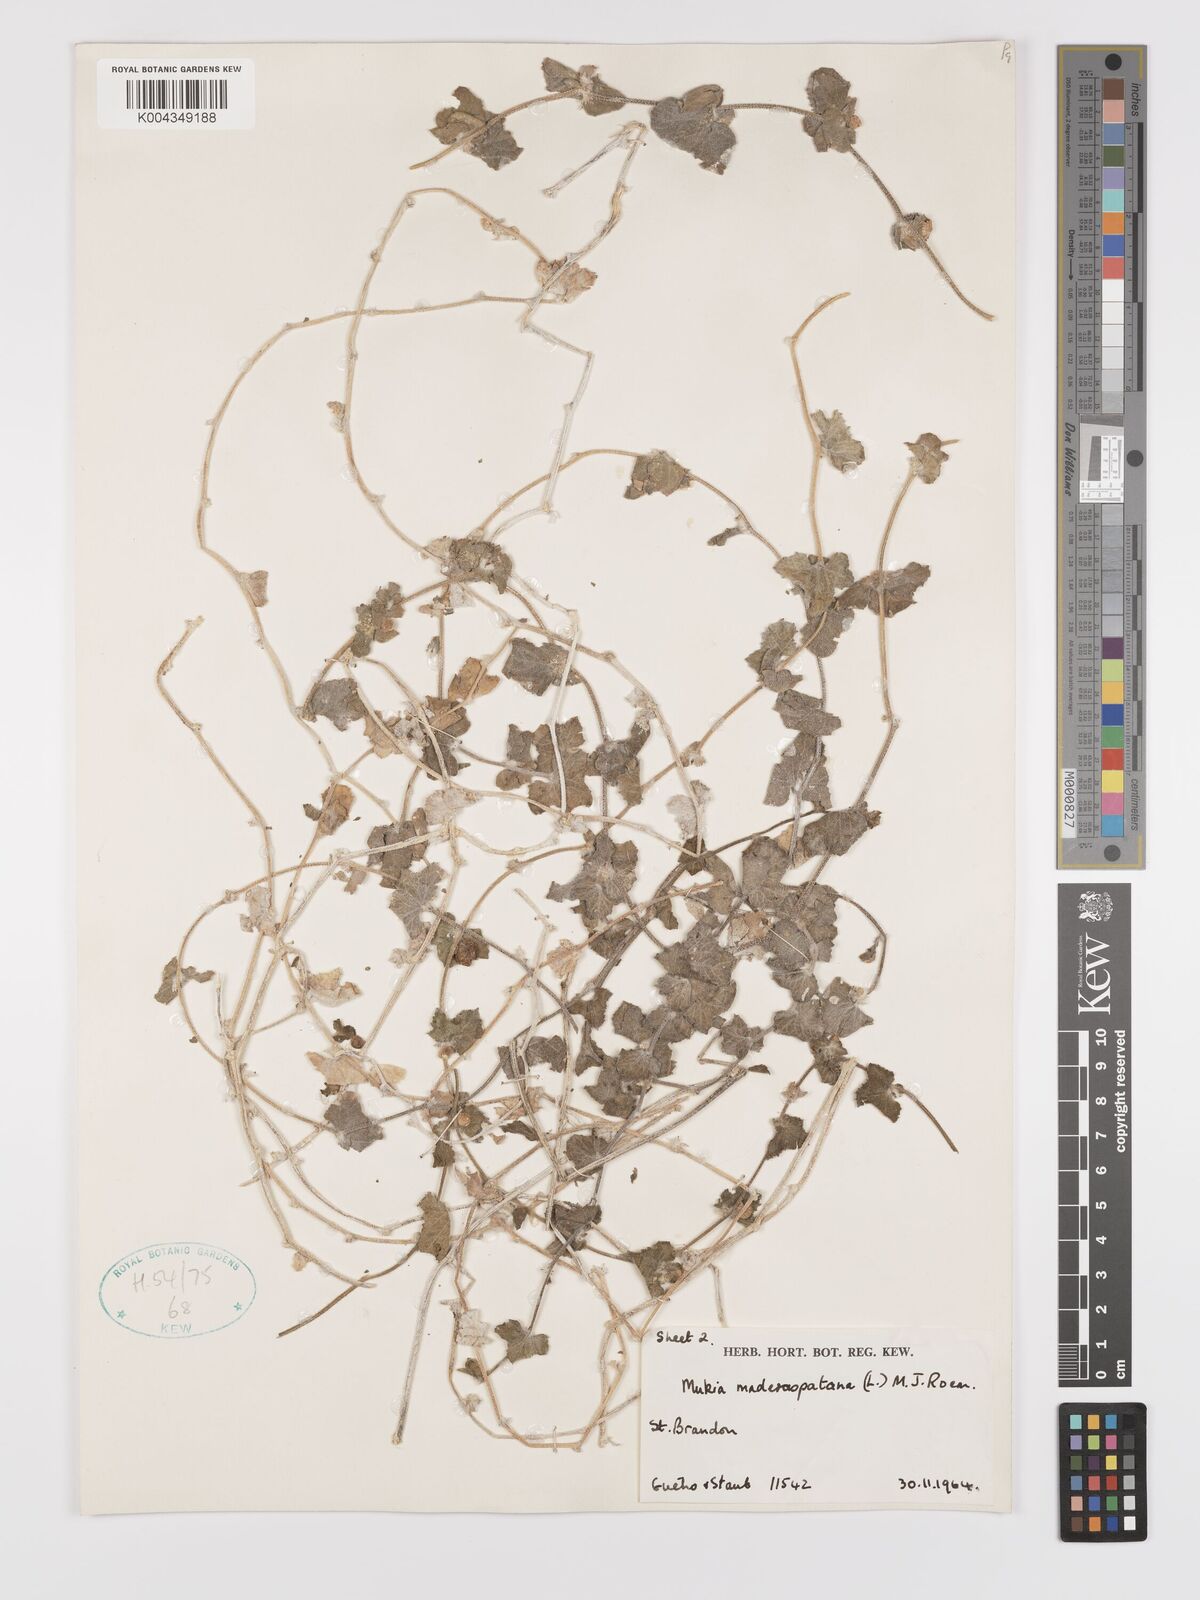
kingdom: Plantae
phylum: Tracheophyta
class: Magnoliopsida
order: Cucurbitales
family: Cucurbitaceae
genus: Cucumis
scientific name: Cucumis maderaspatanus
